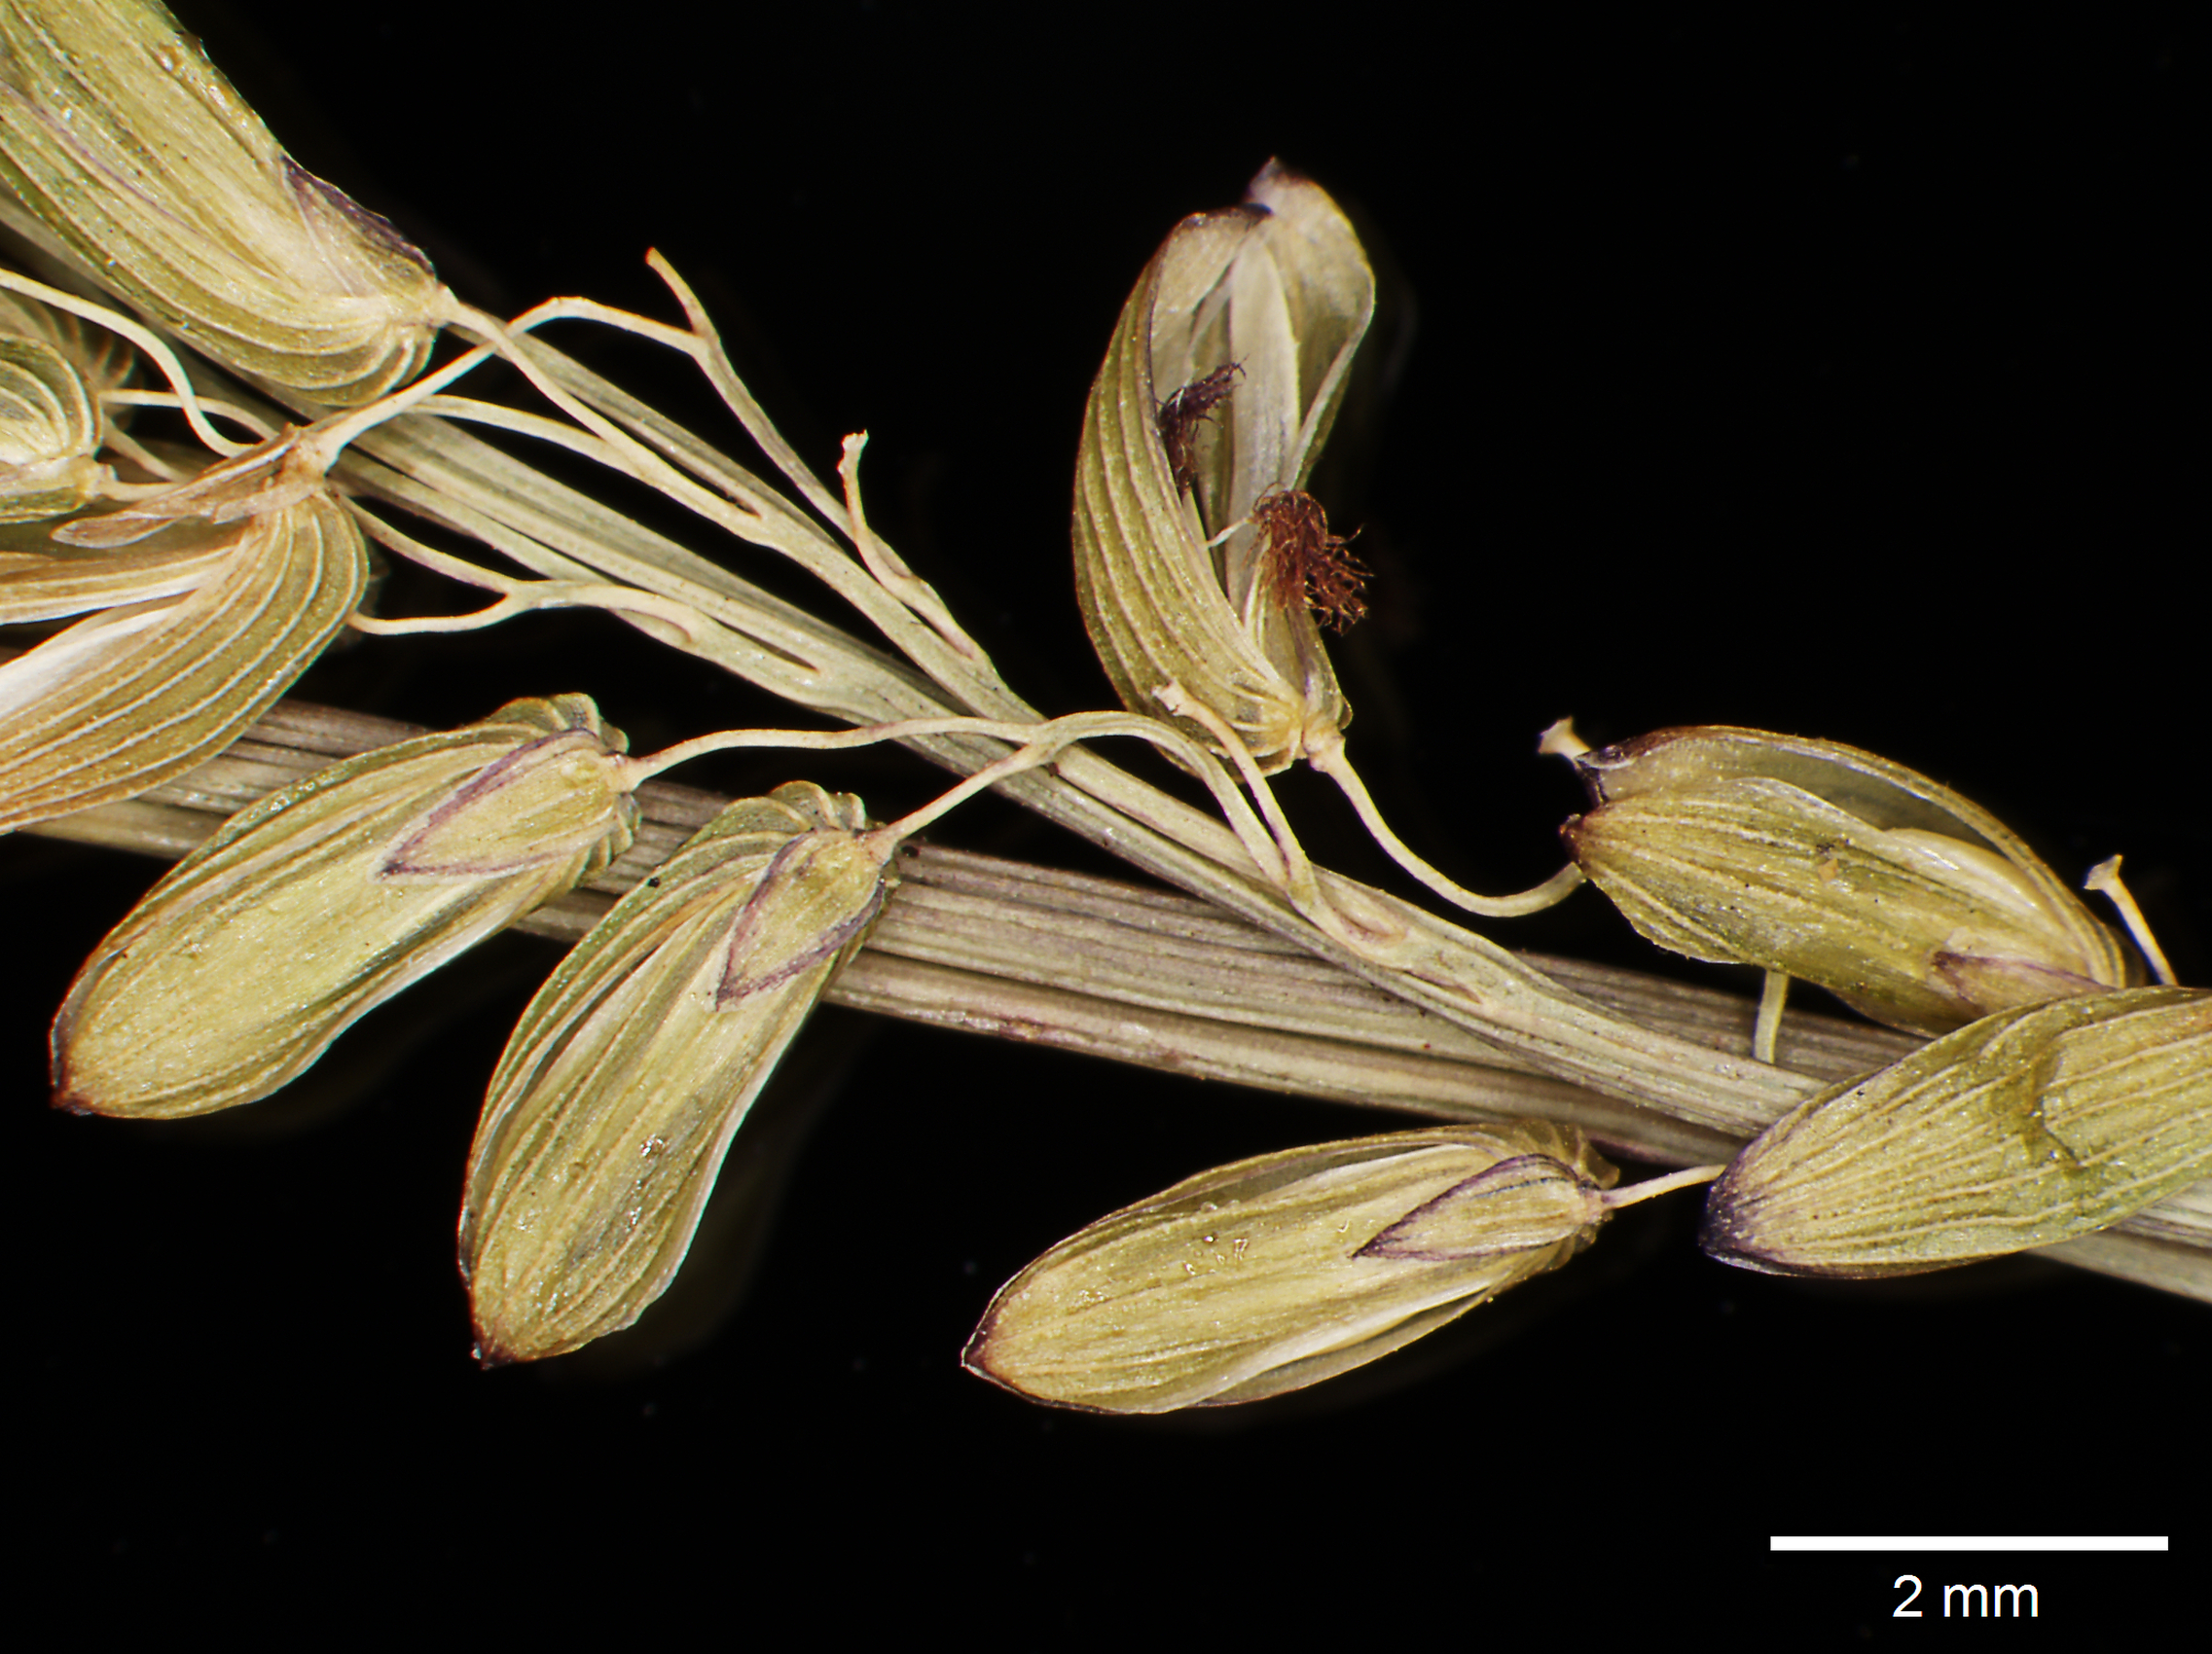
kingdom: Plantae
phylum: Tracheophyta
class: Liliopsida
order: Poales
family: Poaceae
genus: Sacciolepis
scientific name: Sacciolepis striata
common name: American cupscale
